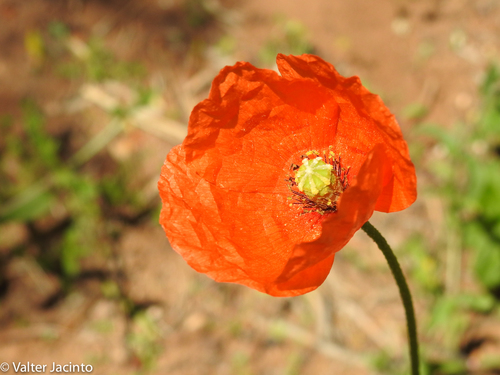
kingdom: Plantae
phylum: Tracheophyta
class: Magnoliopsida
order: Ranunculales
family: Papaveraceae
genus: Papaver
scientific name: Papaver dubium
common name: Long-headed poppy
